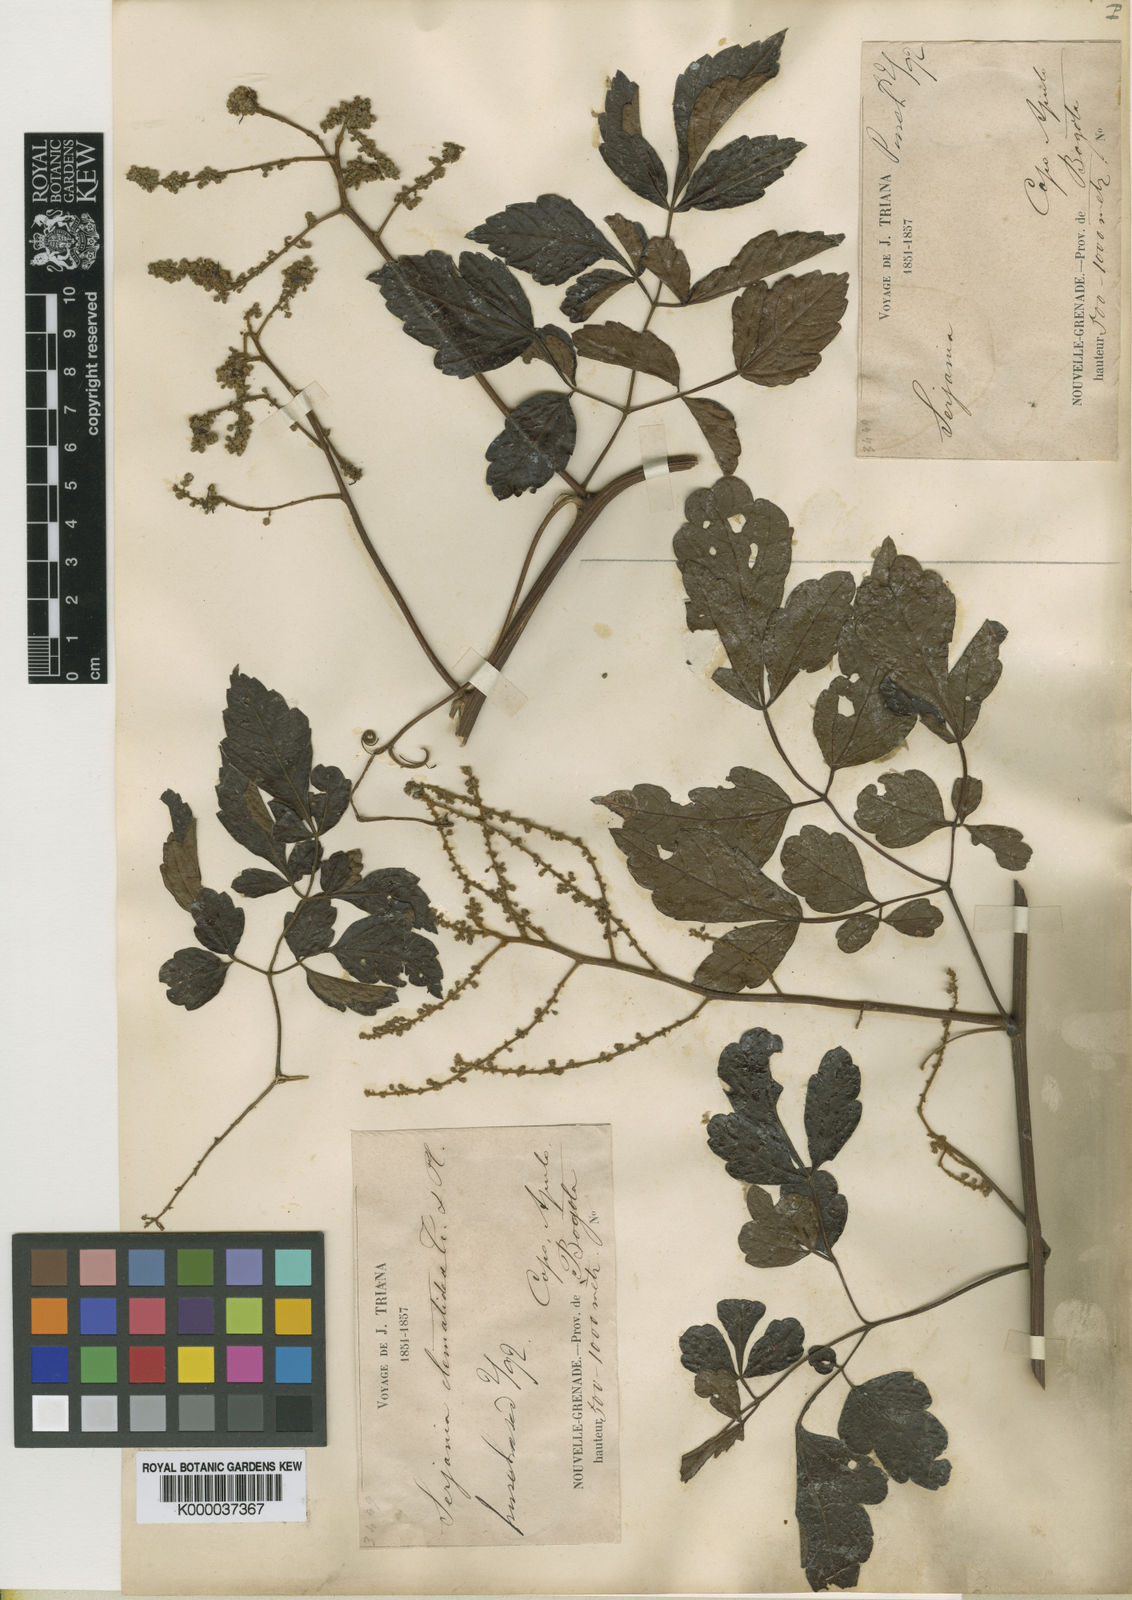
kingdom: Plantae
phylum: Tracheophyta
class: Magnoliopsida
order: Sapindales
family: Sapindaceae
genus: Serjania
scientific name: Serjania clematidea
